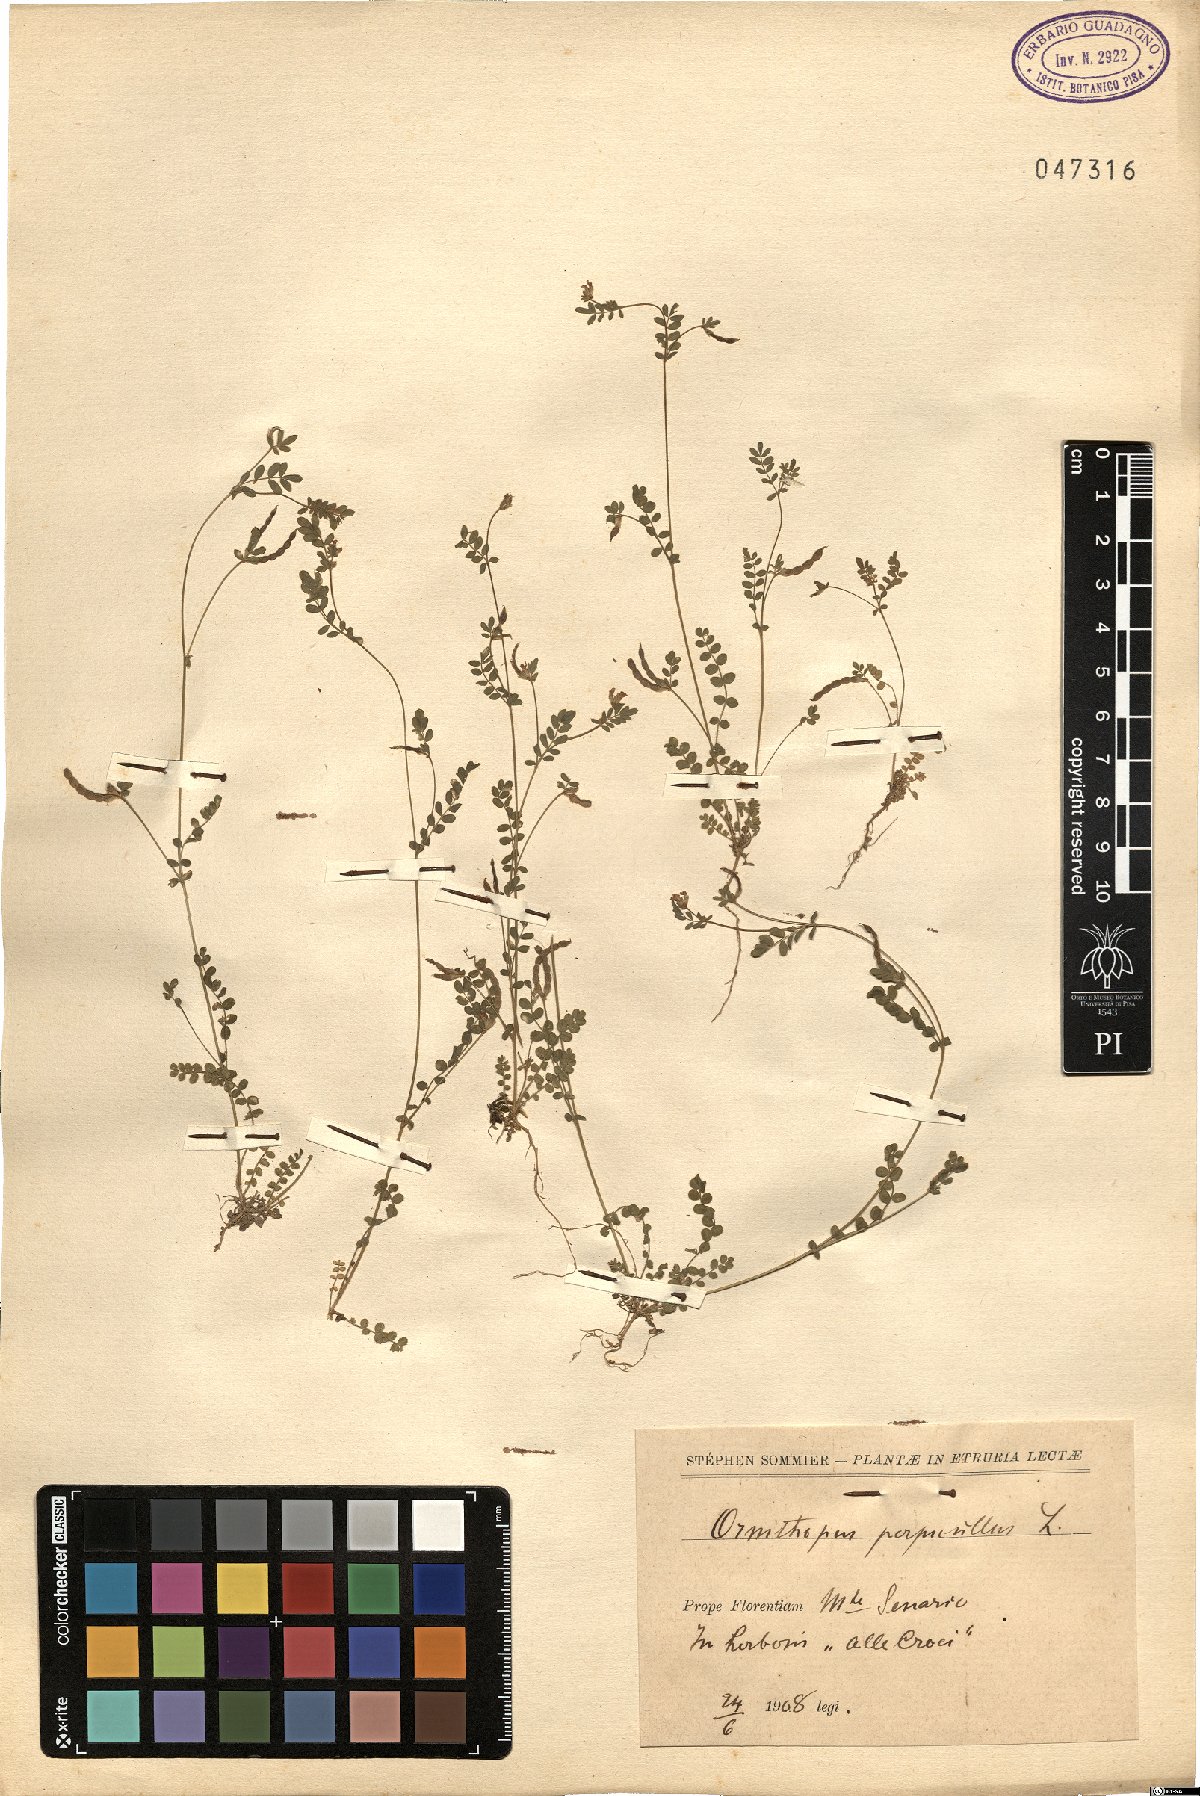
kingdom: Plantae
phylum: Tracheophyta
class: Magnoliopsida
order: Fabales
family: Fabaceae
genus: Ornithopus
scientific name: Ornithopus perpusillus
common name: Bird's-foot
